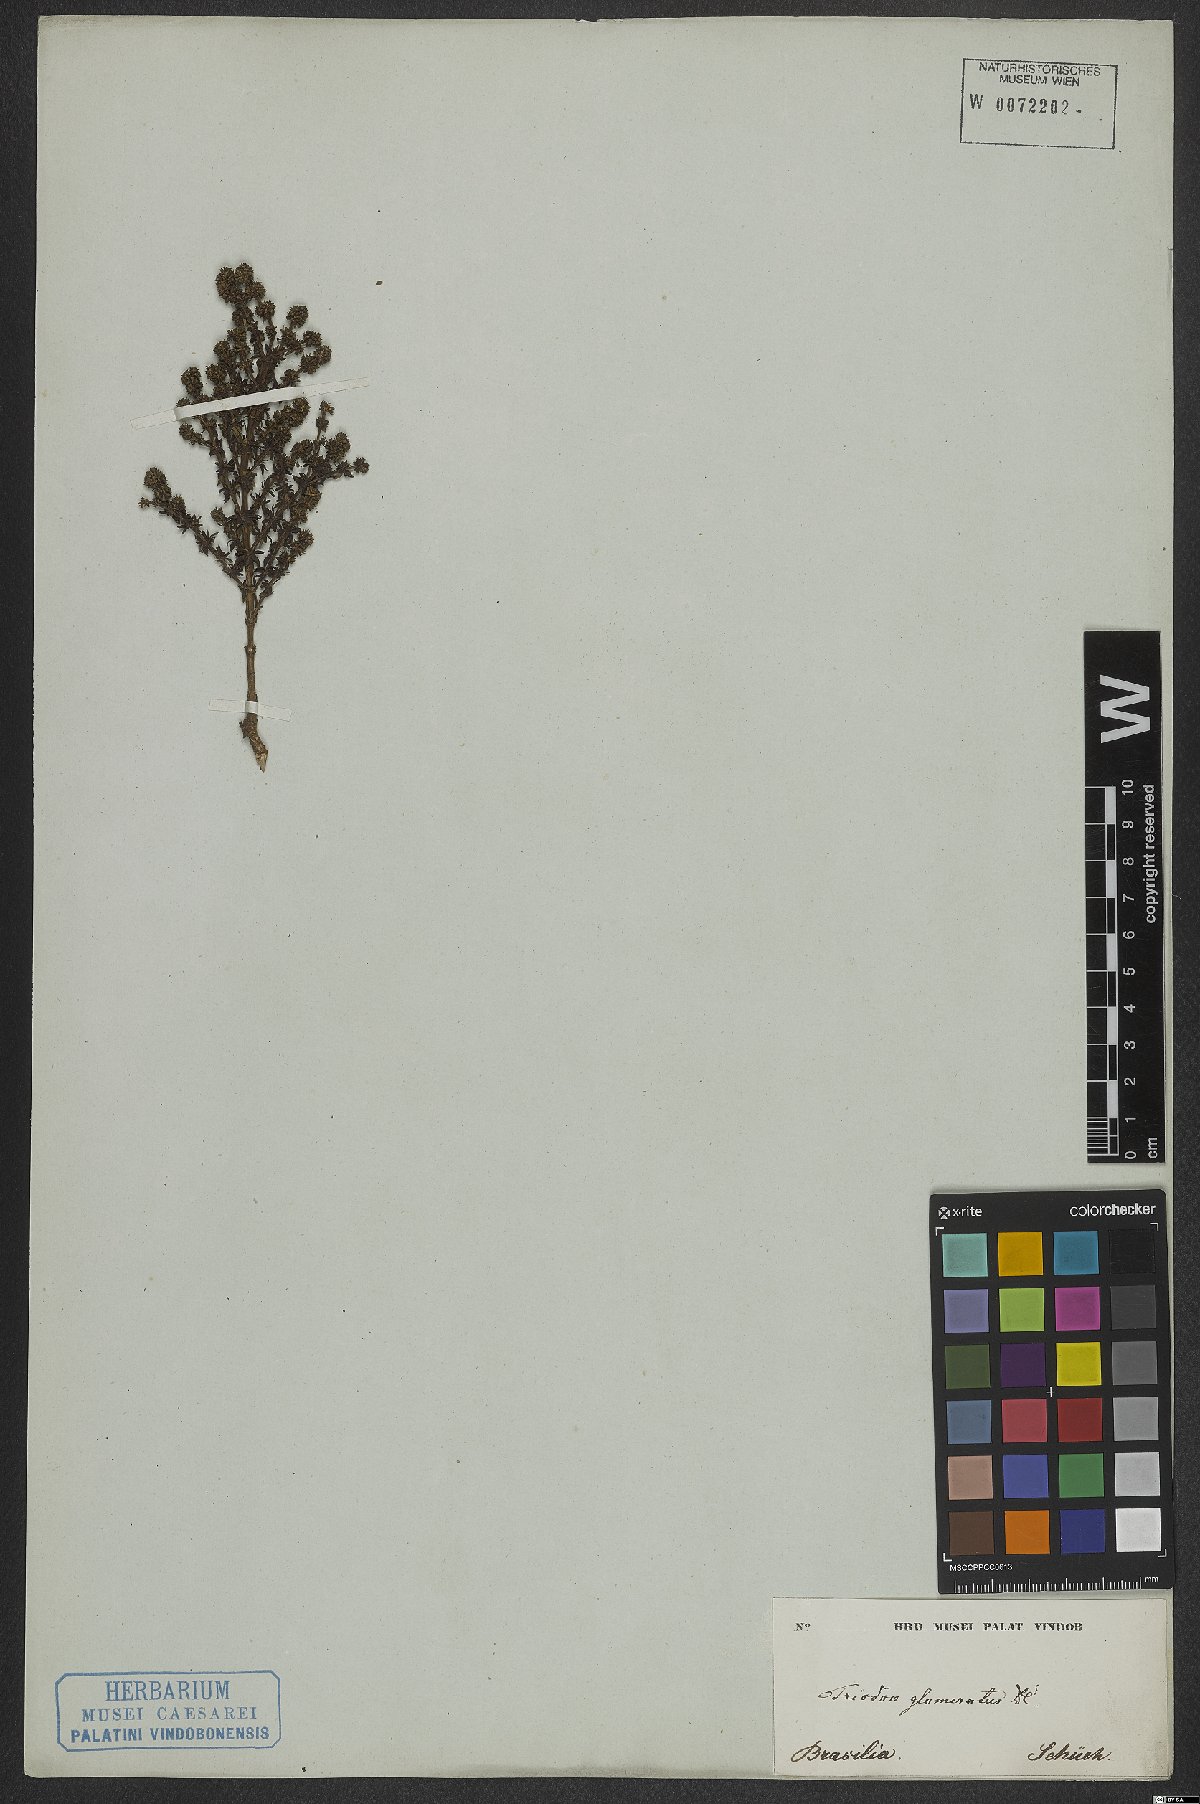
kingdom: Plantae
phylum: Tracheophyta
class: Magnoliopsida
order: Gentianales
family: Rubiaceae
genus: Galianthe
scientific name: Galianthe brasiliensis
